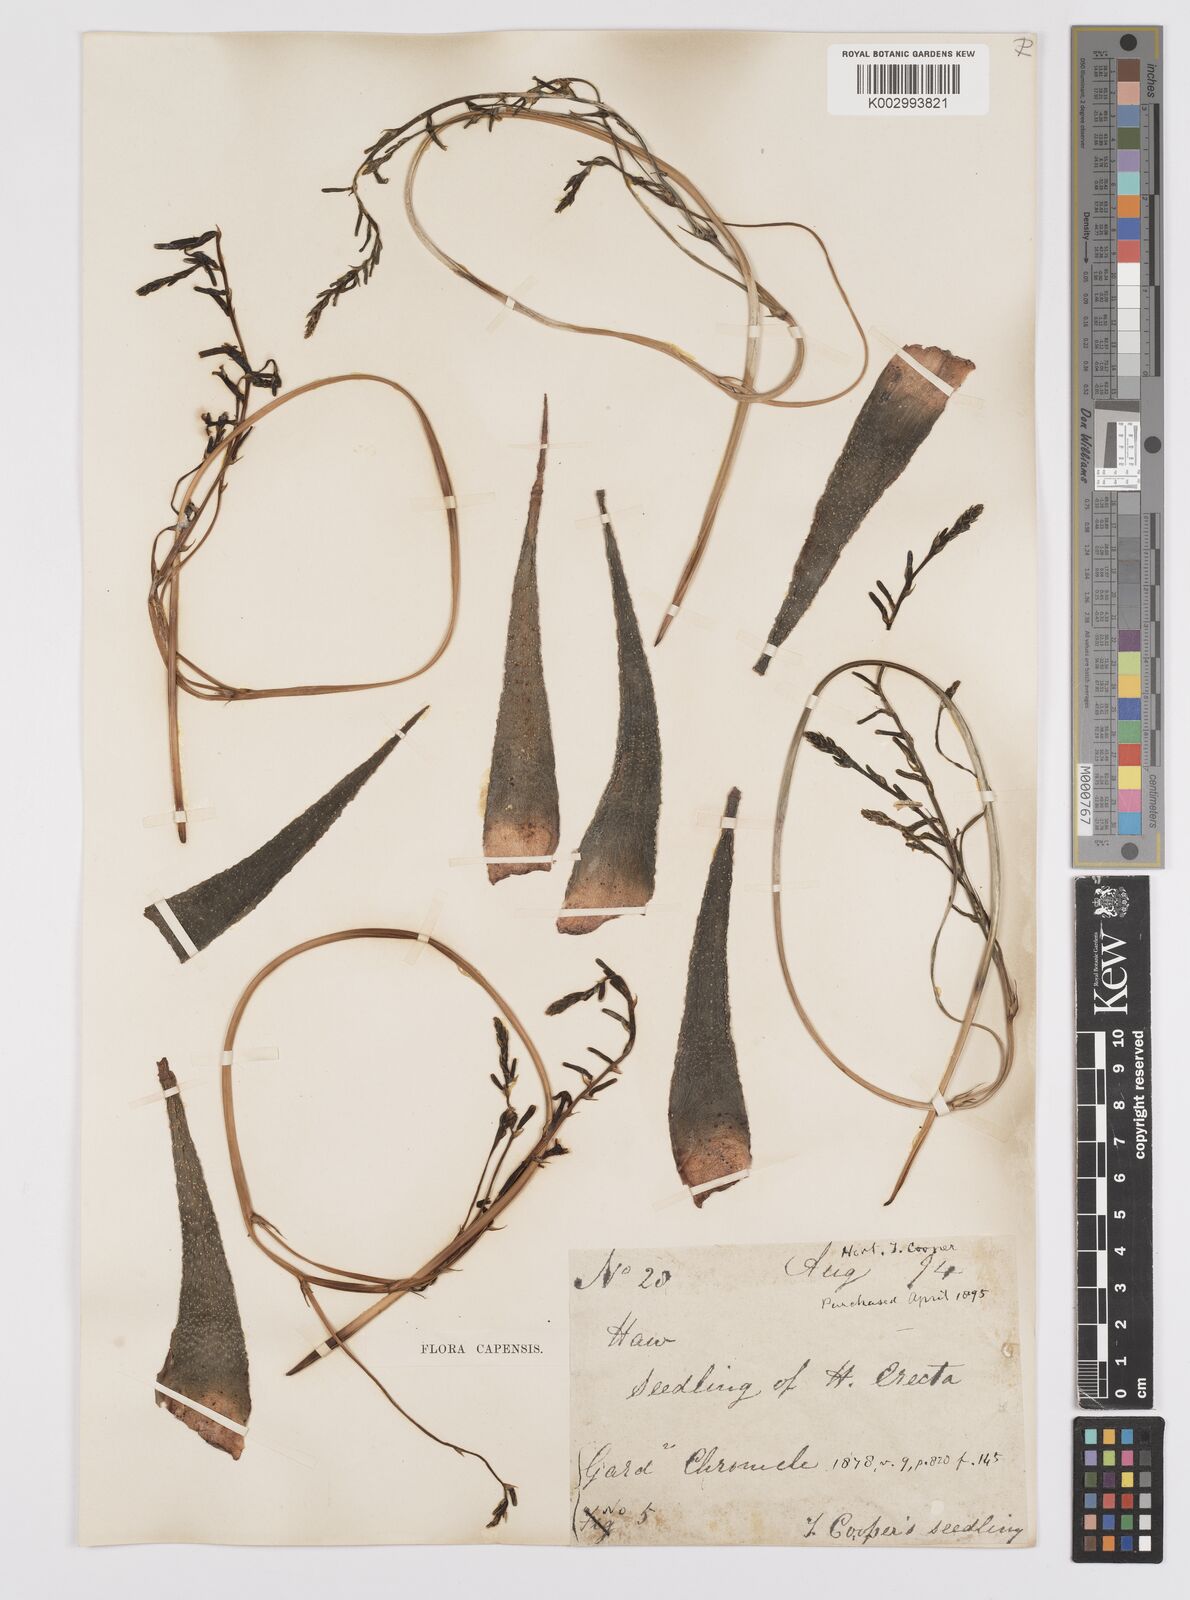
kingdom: Plantae
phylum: Tracheophyta
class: Liliopsida
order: Asparagales
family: Asphodelaceae
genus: Tulista
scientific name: Tulista pumila
